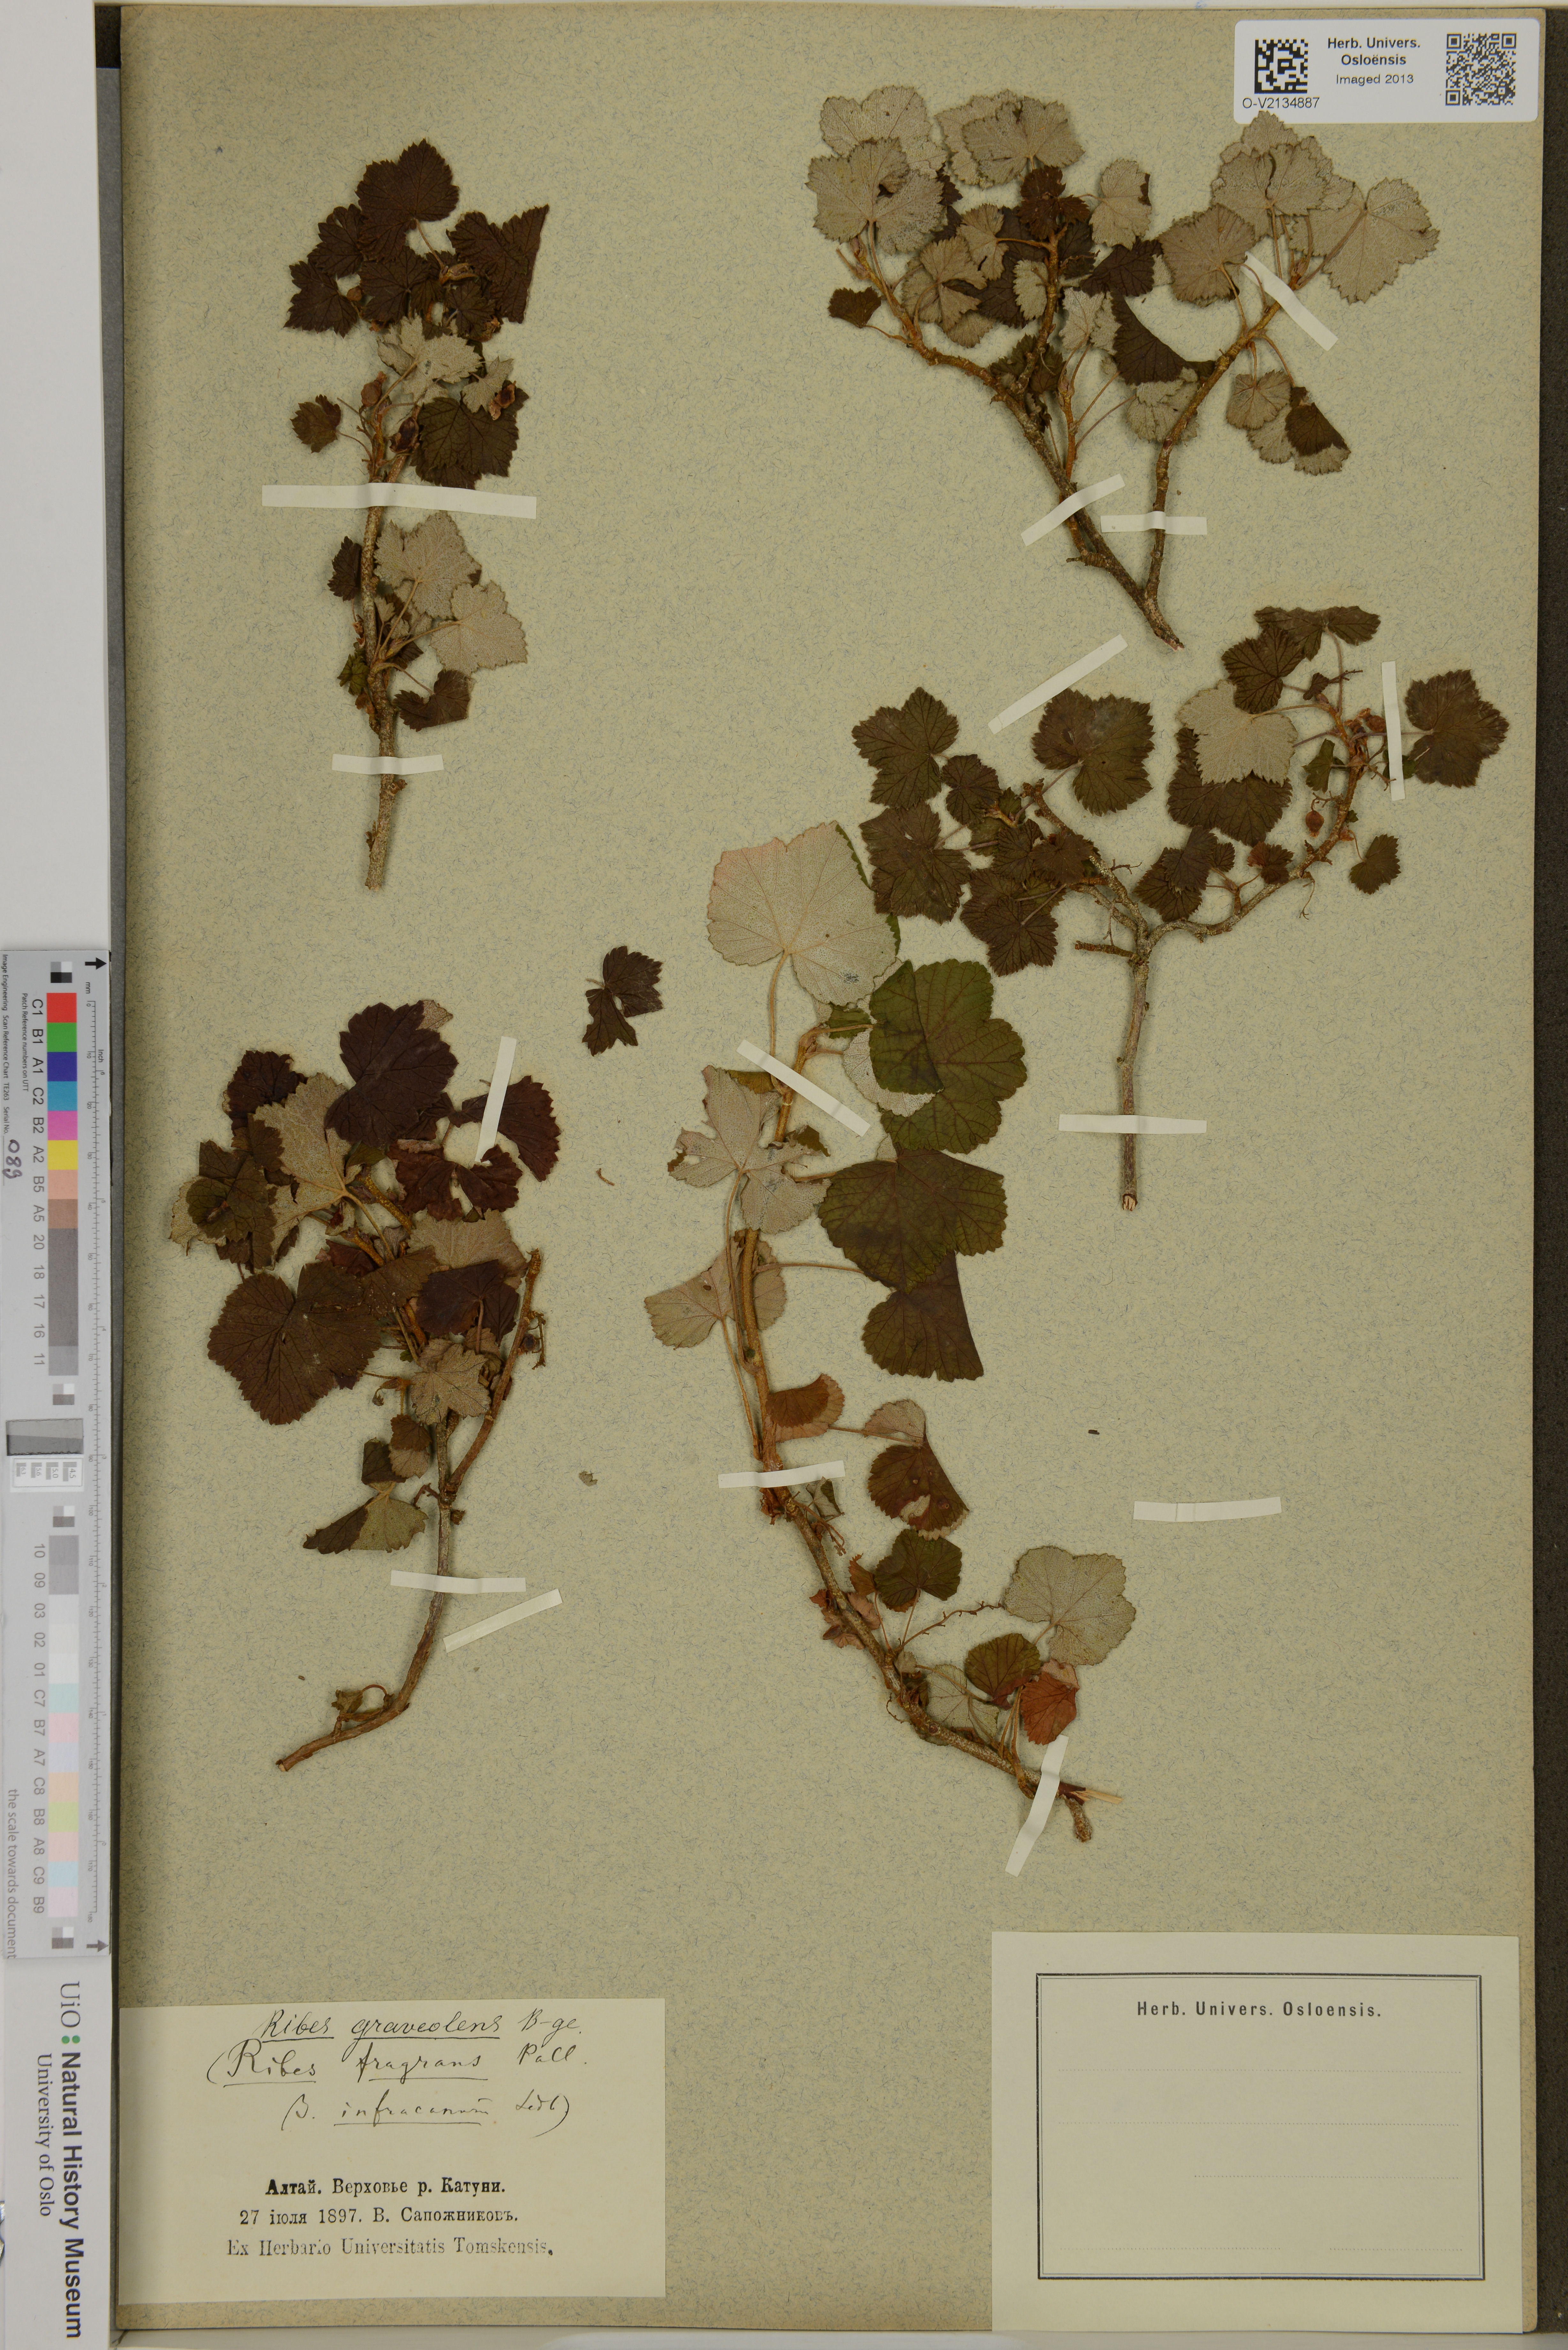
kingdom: Plantae
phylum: Tracheophyta
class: Magnoliopsida
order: Saxifragales
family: Grossulariaceae
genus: Ribes
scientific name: Ribes graveolens
